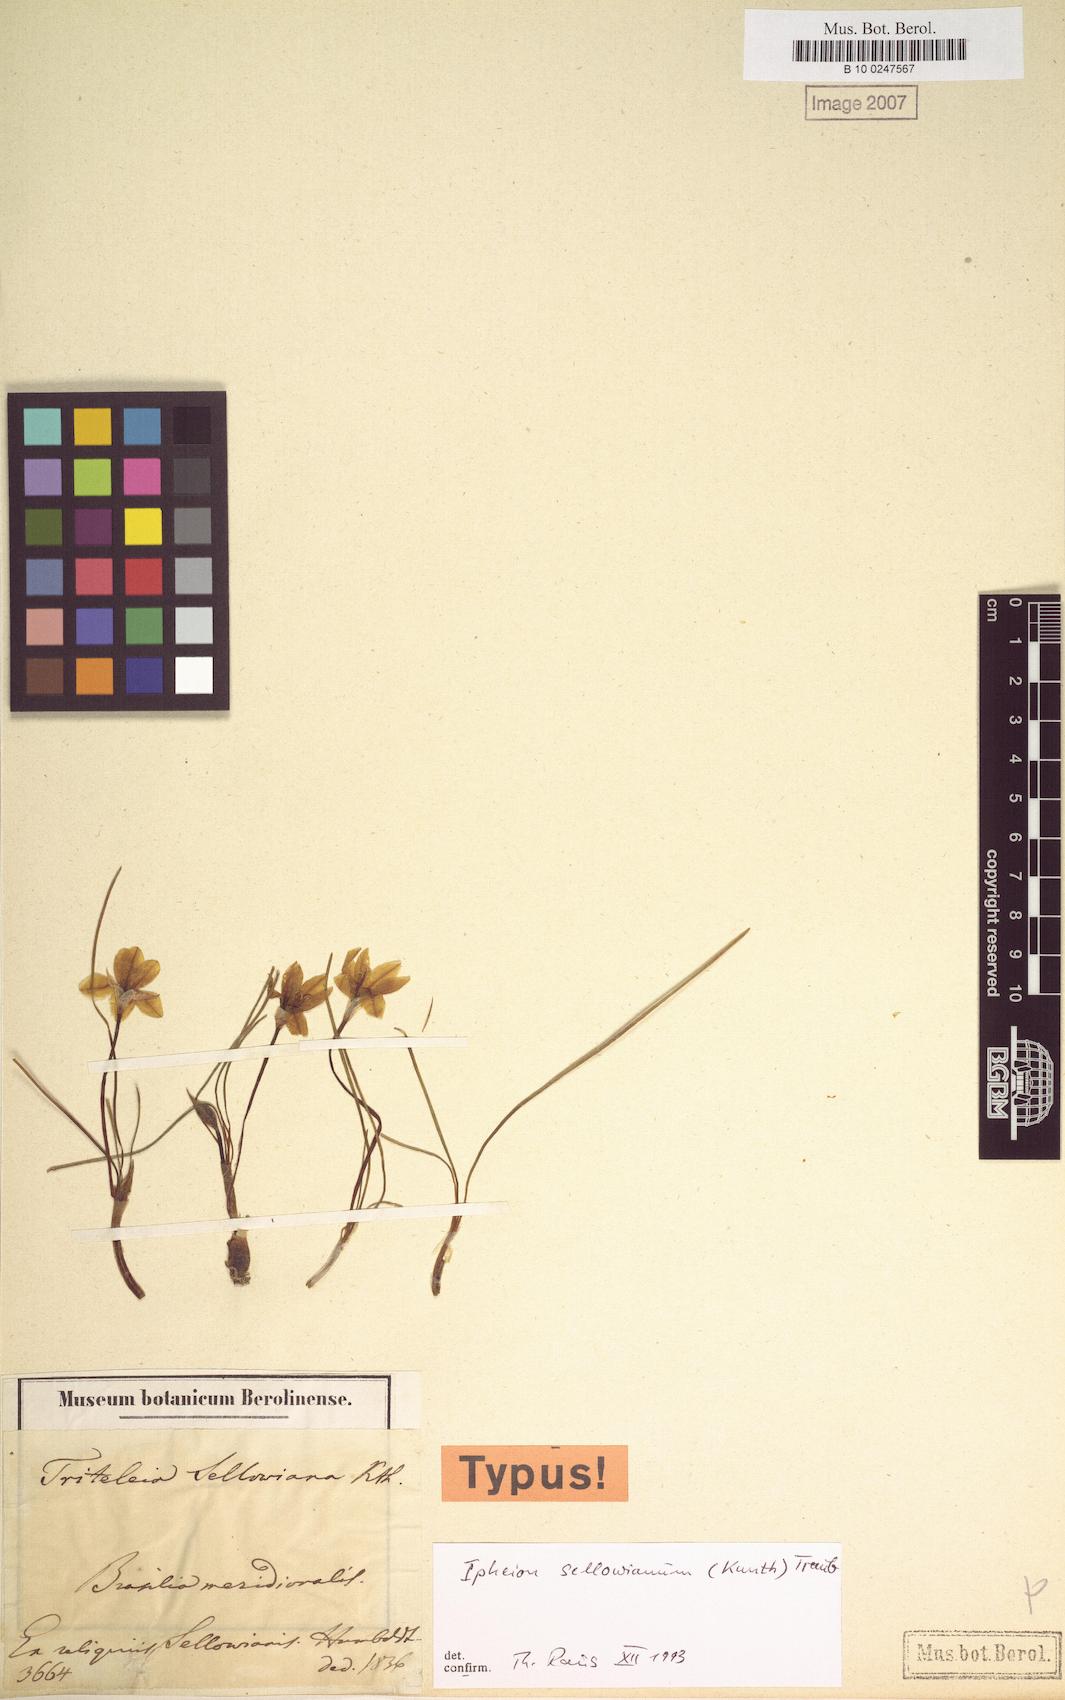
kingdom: Plantae
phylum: Tracheophyta
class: Liliopsida
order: Asparagales
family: Amaryllidaceae
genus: Nothoscordum
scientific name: Nothoscordum felipponei
